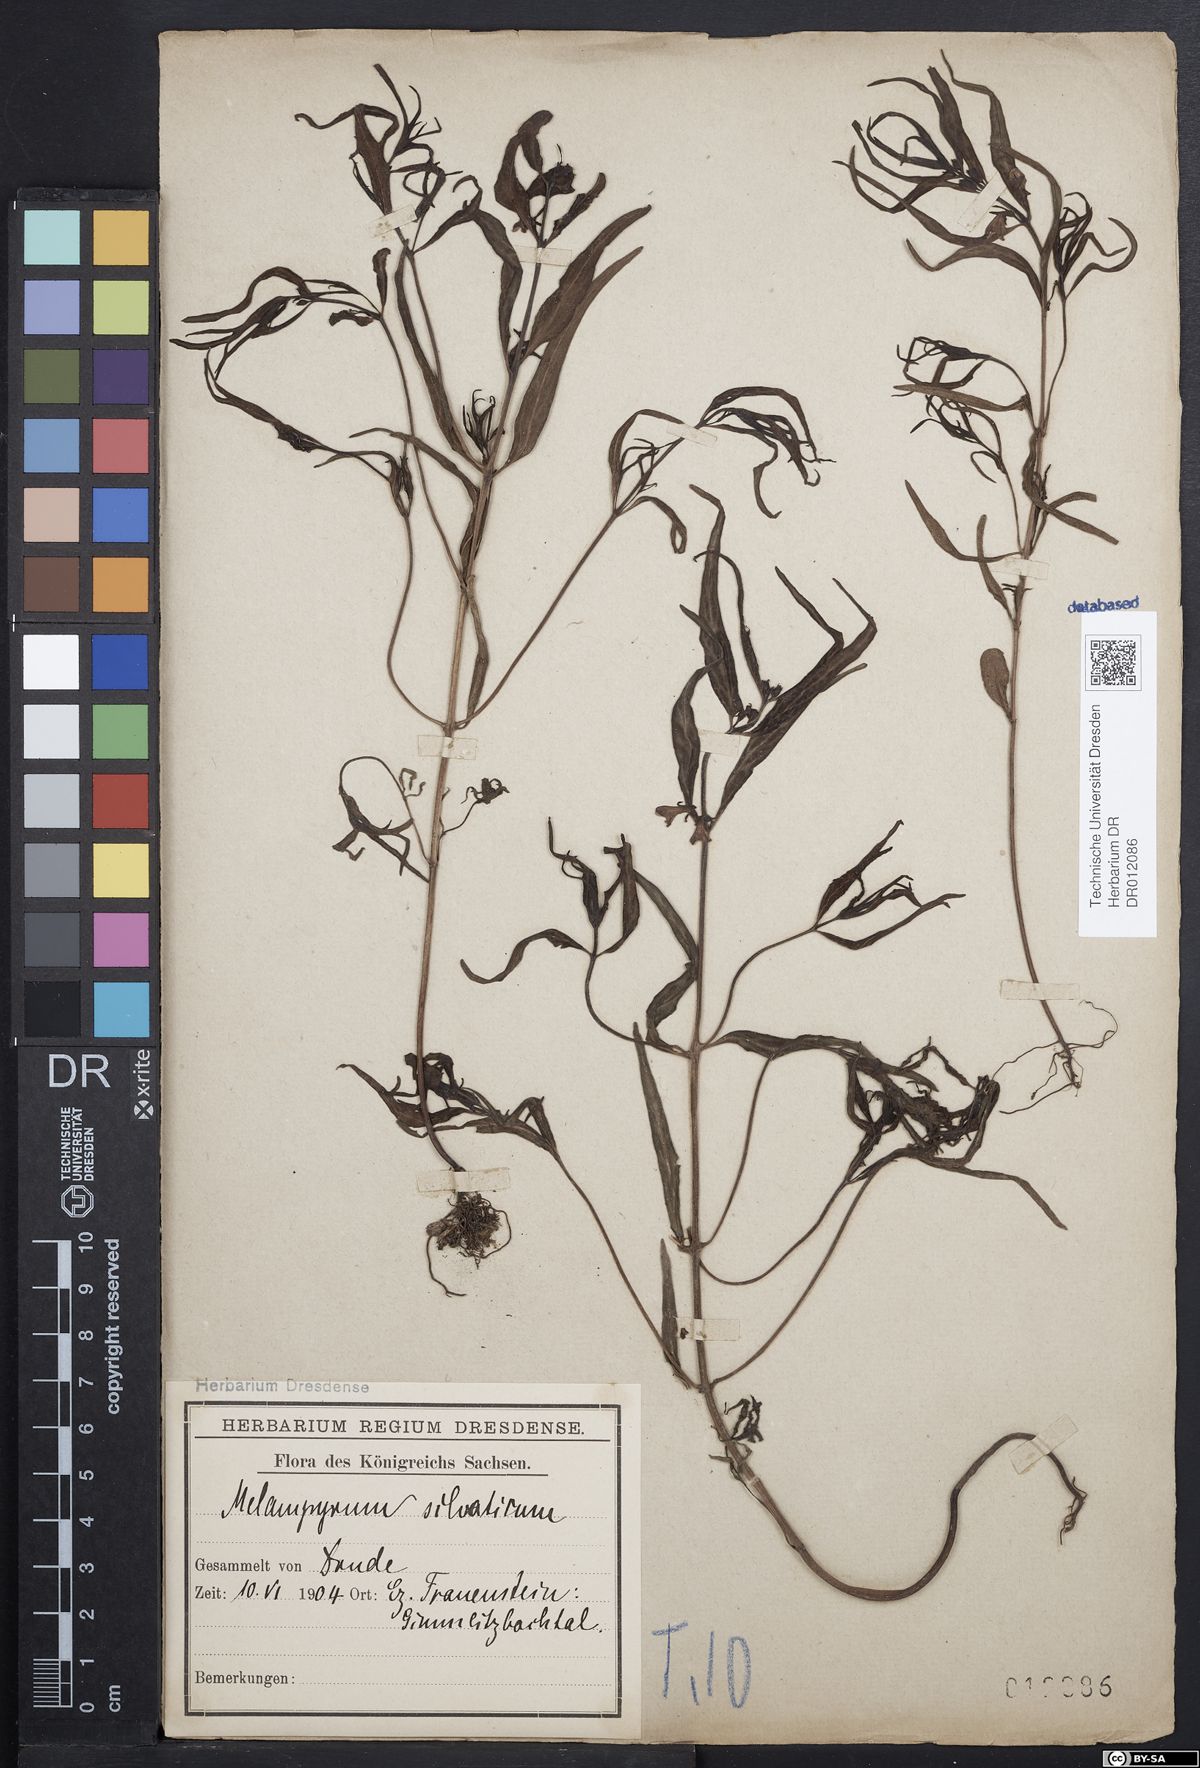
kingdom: Plantae
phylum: Tracheophyta
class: Magnoliopsida
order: Lamiales
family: Orobanchaceae
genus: Melampyrum
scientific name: Melampyrum sylvaticum
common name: Small cow-wheat
